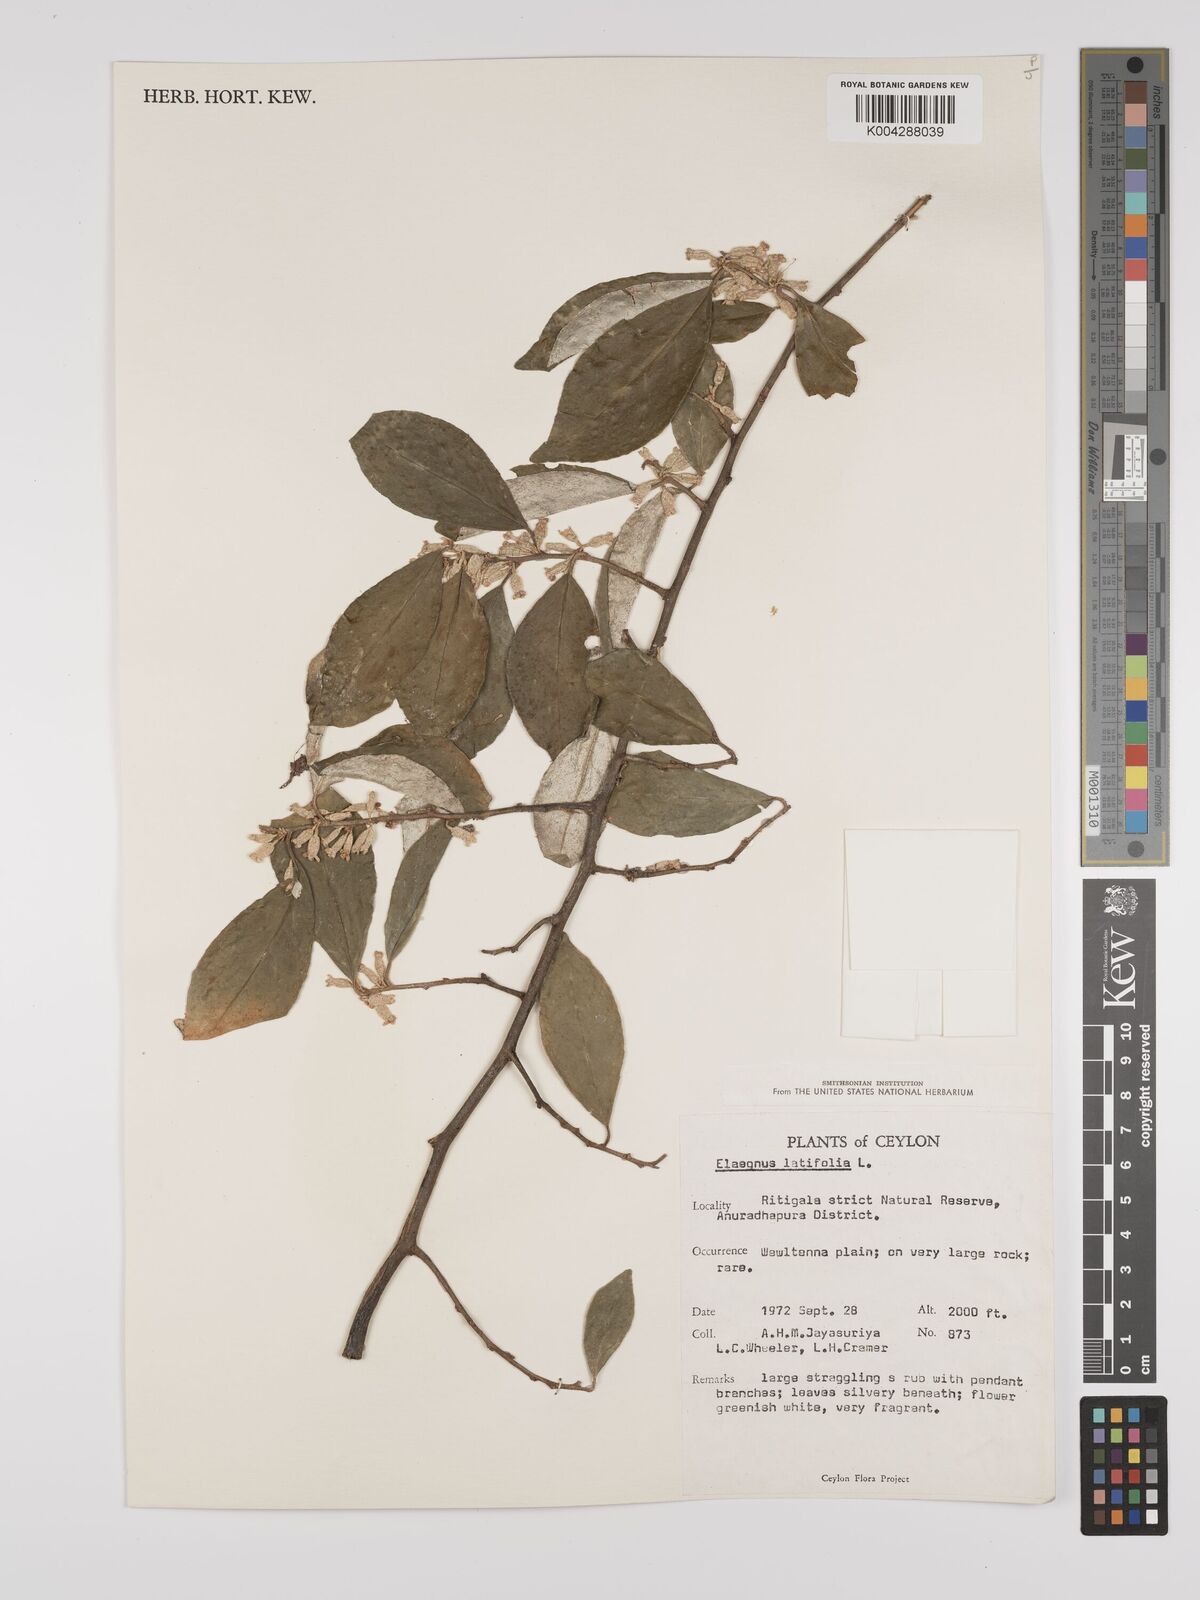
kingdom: Plantae
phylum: Tracheophyta
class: Magnoliopsida
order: Rosales
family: Elaeagnaceae
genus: Elaeagnus
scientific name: Elaeagnus latifolia
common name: Oleaster
